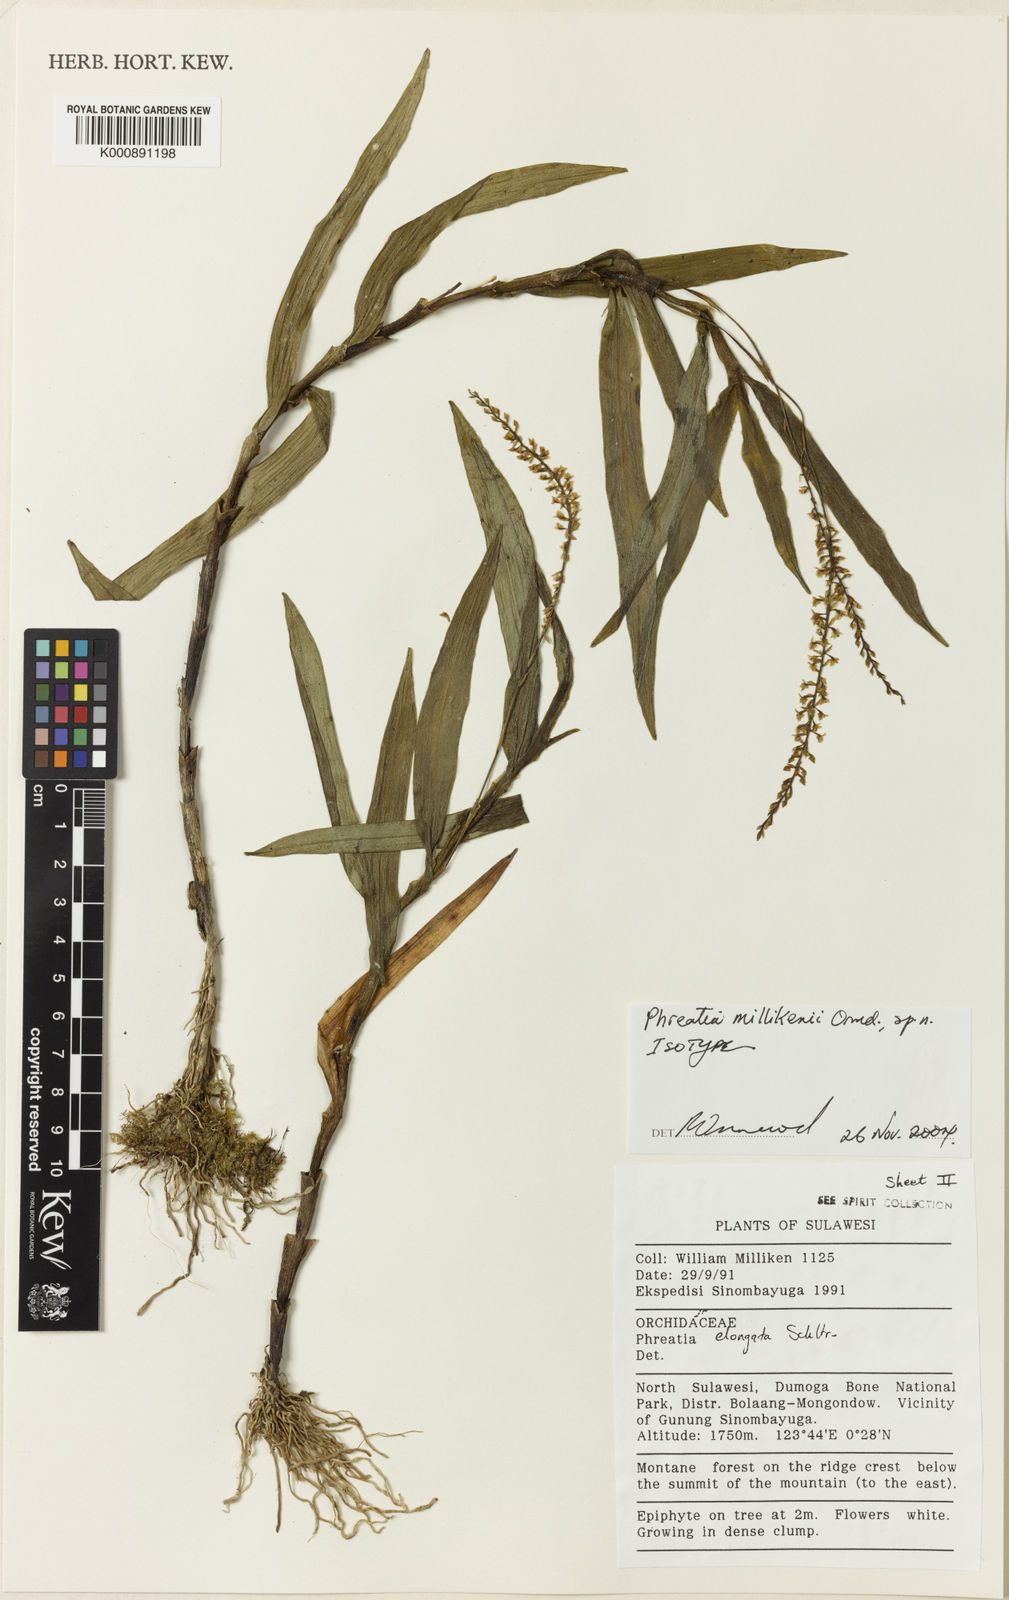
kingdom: Plantae
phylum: Tracheophyta
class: Liliopsida
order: Asparagales
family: Orchidaceae
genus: Phreatia
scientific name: Phreatia millikenii
